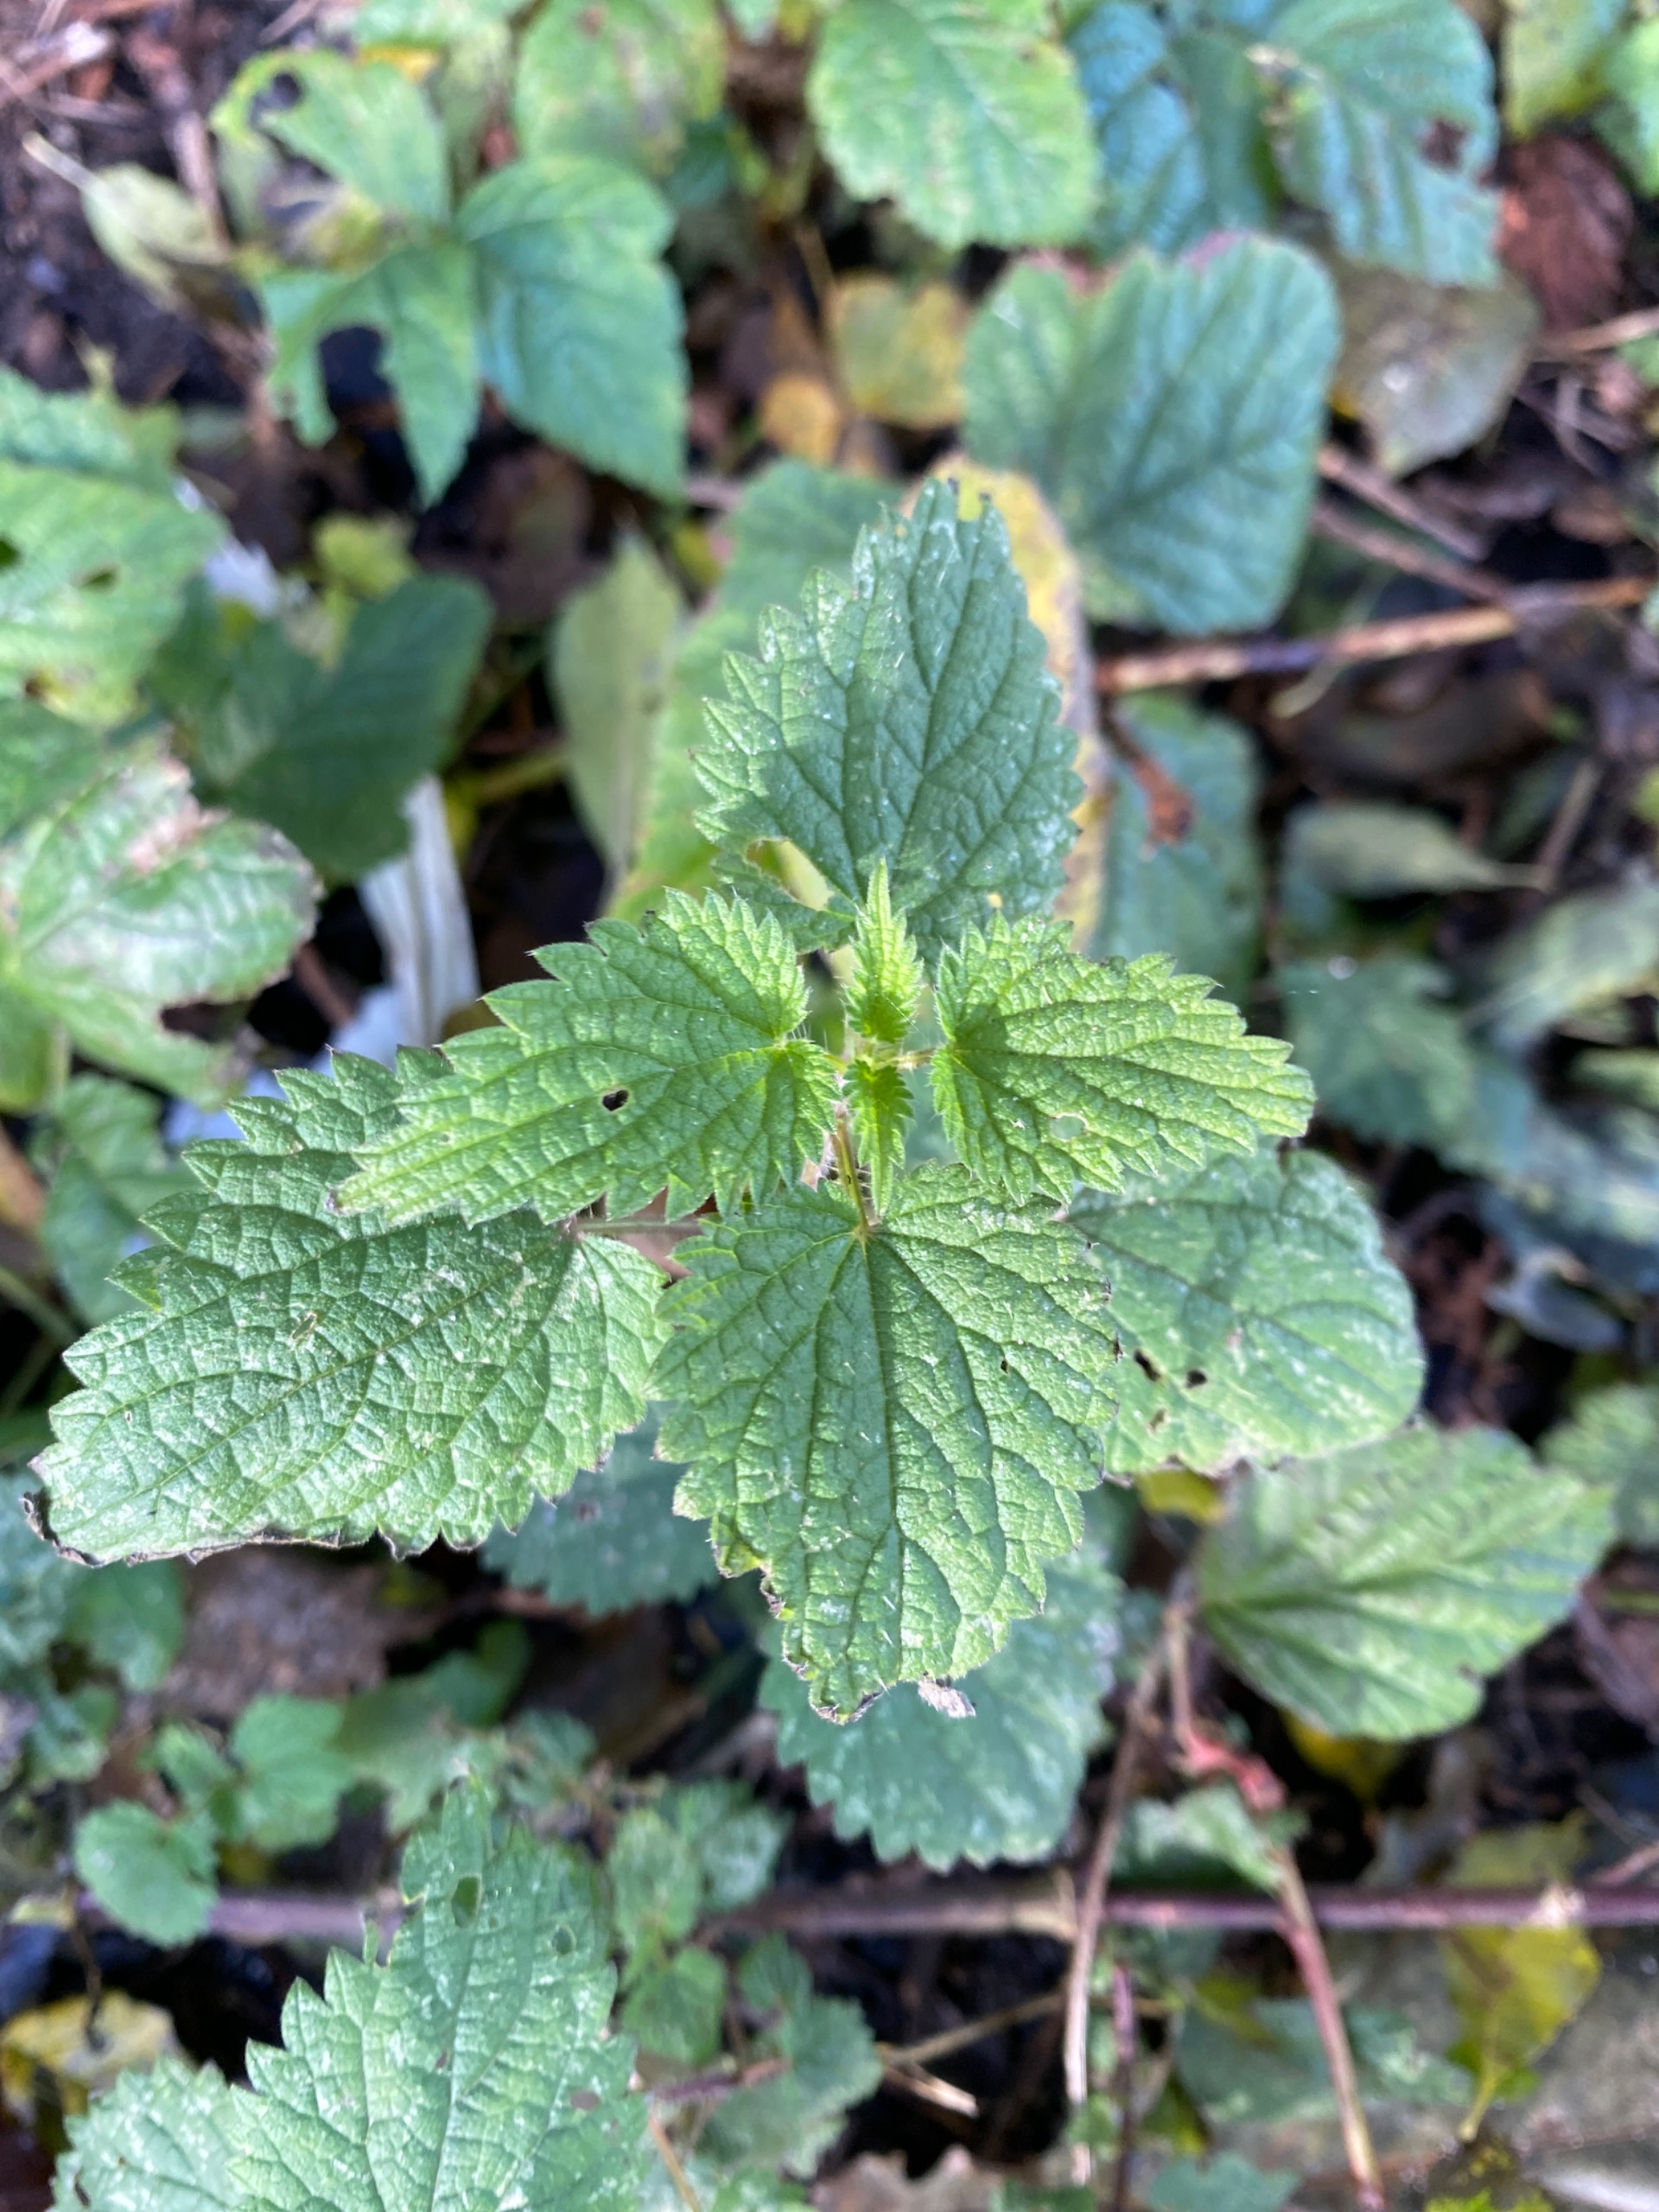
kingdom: Plantae
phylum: Tracheophyta
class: Magnoliopsida
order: Rosales
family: Urticaceae
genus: Urtica
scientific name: Urtica dioica
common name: Stor nælde
